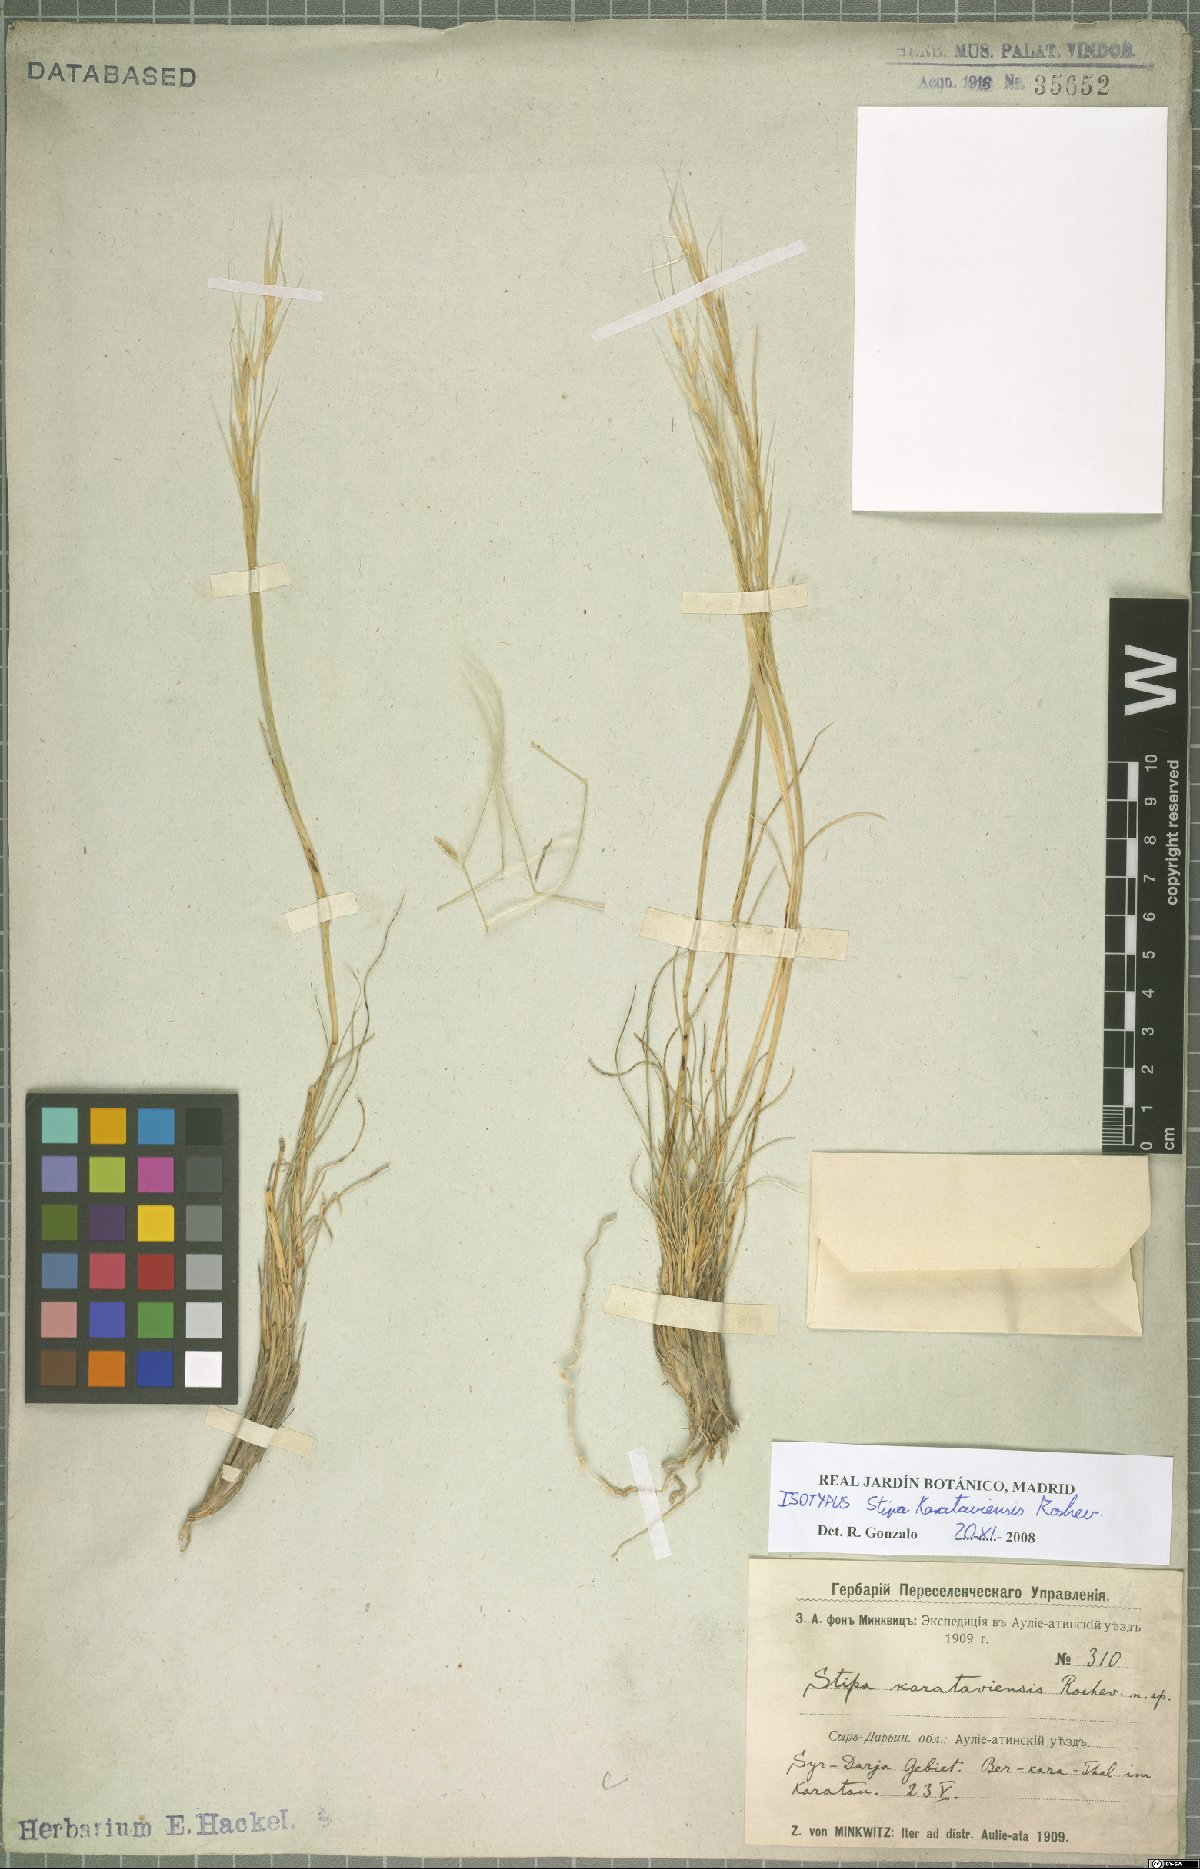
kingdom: Plantae
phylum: Tracheophyta
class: Liliopsida
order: Poales
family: Poaceae
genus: Stipa
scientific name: Stipa karataviensis
